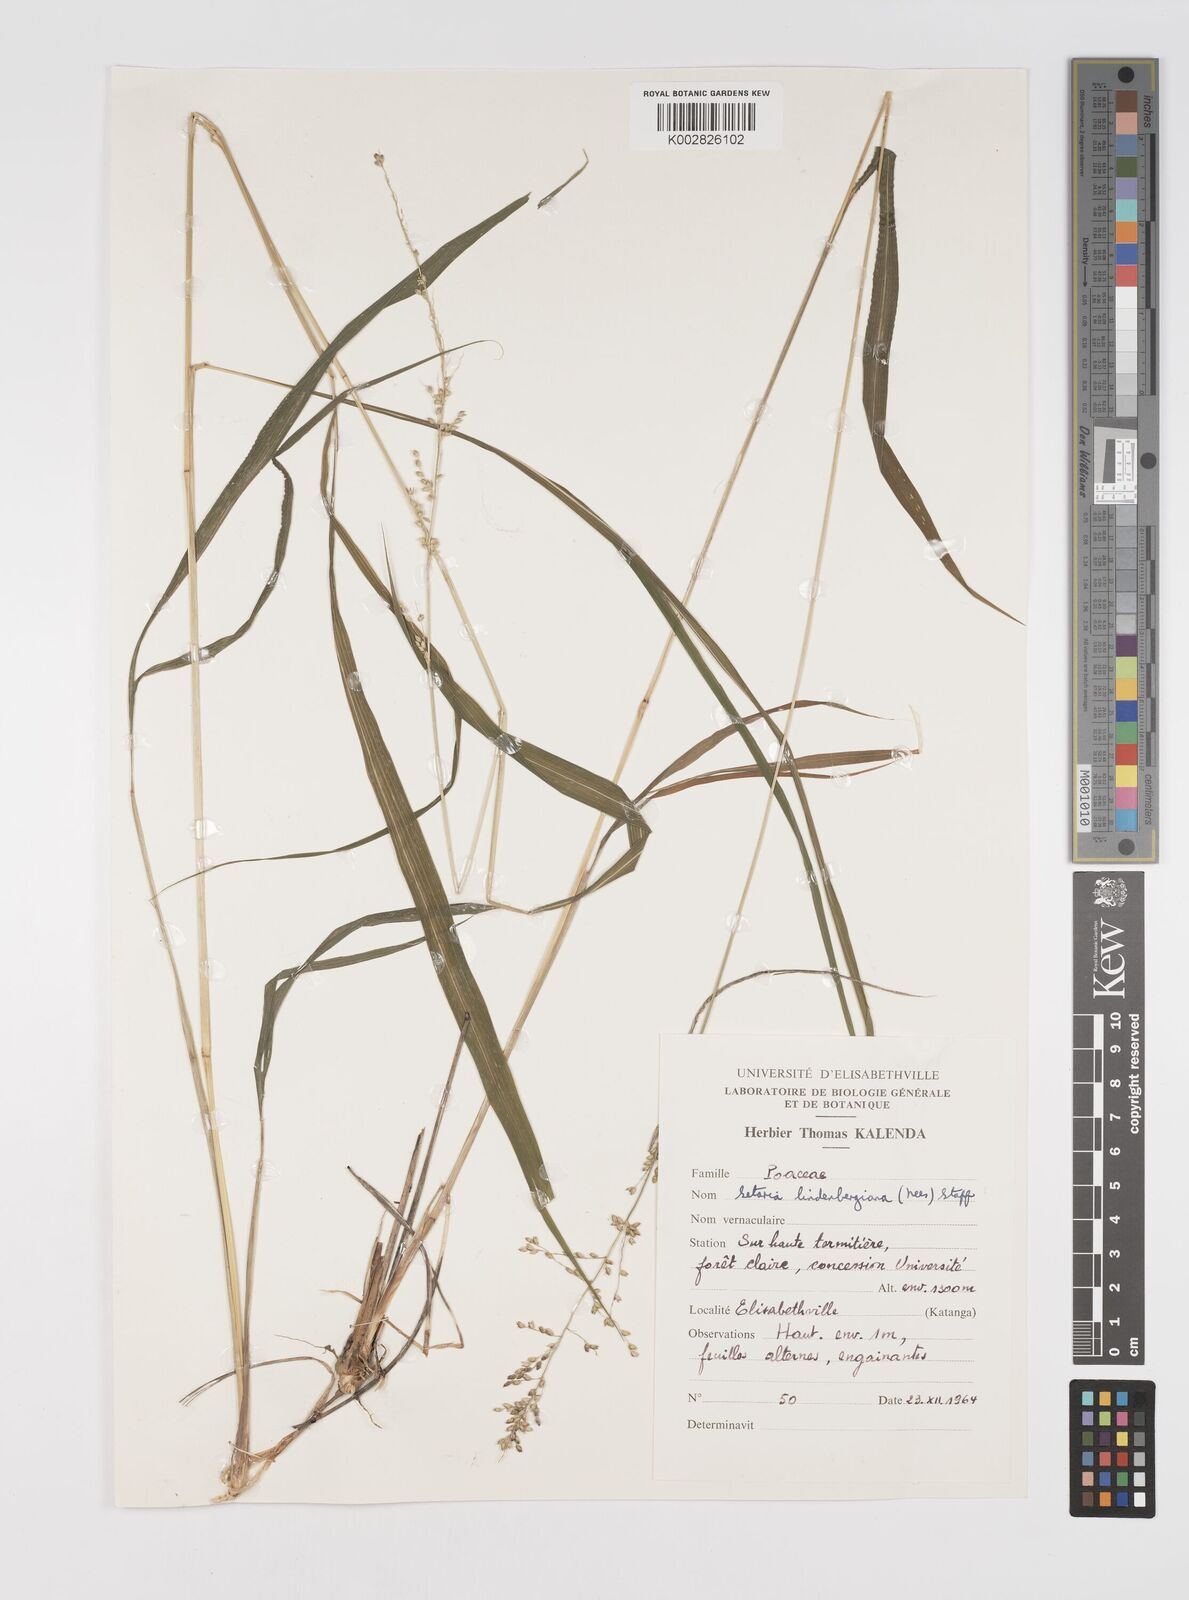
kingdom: Plantae
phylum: Tracheophyta
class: Liliopsida
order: Poales
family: Poaceae
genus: Setaria
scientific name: Setaria lindenbergiana
